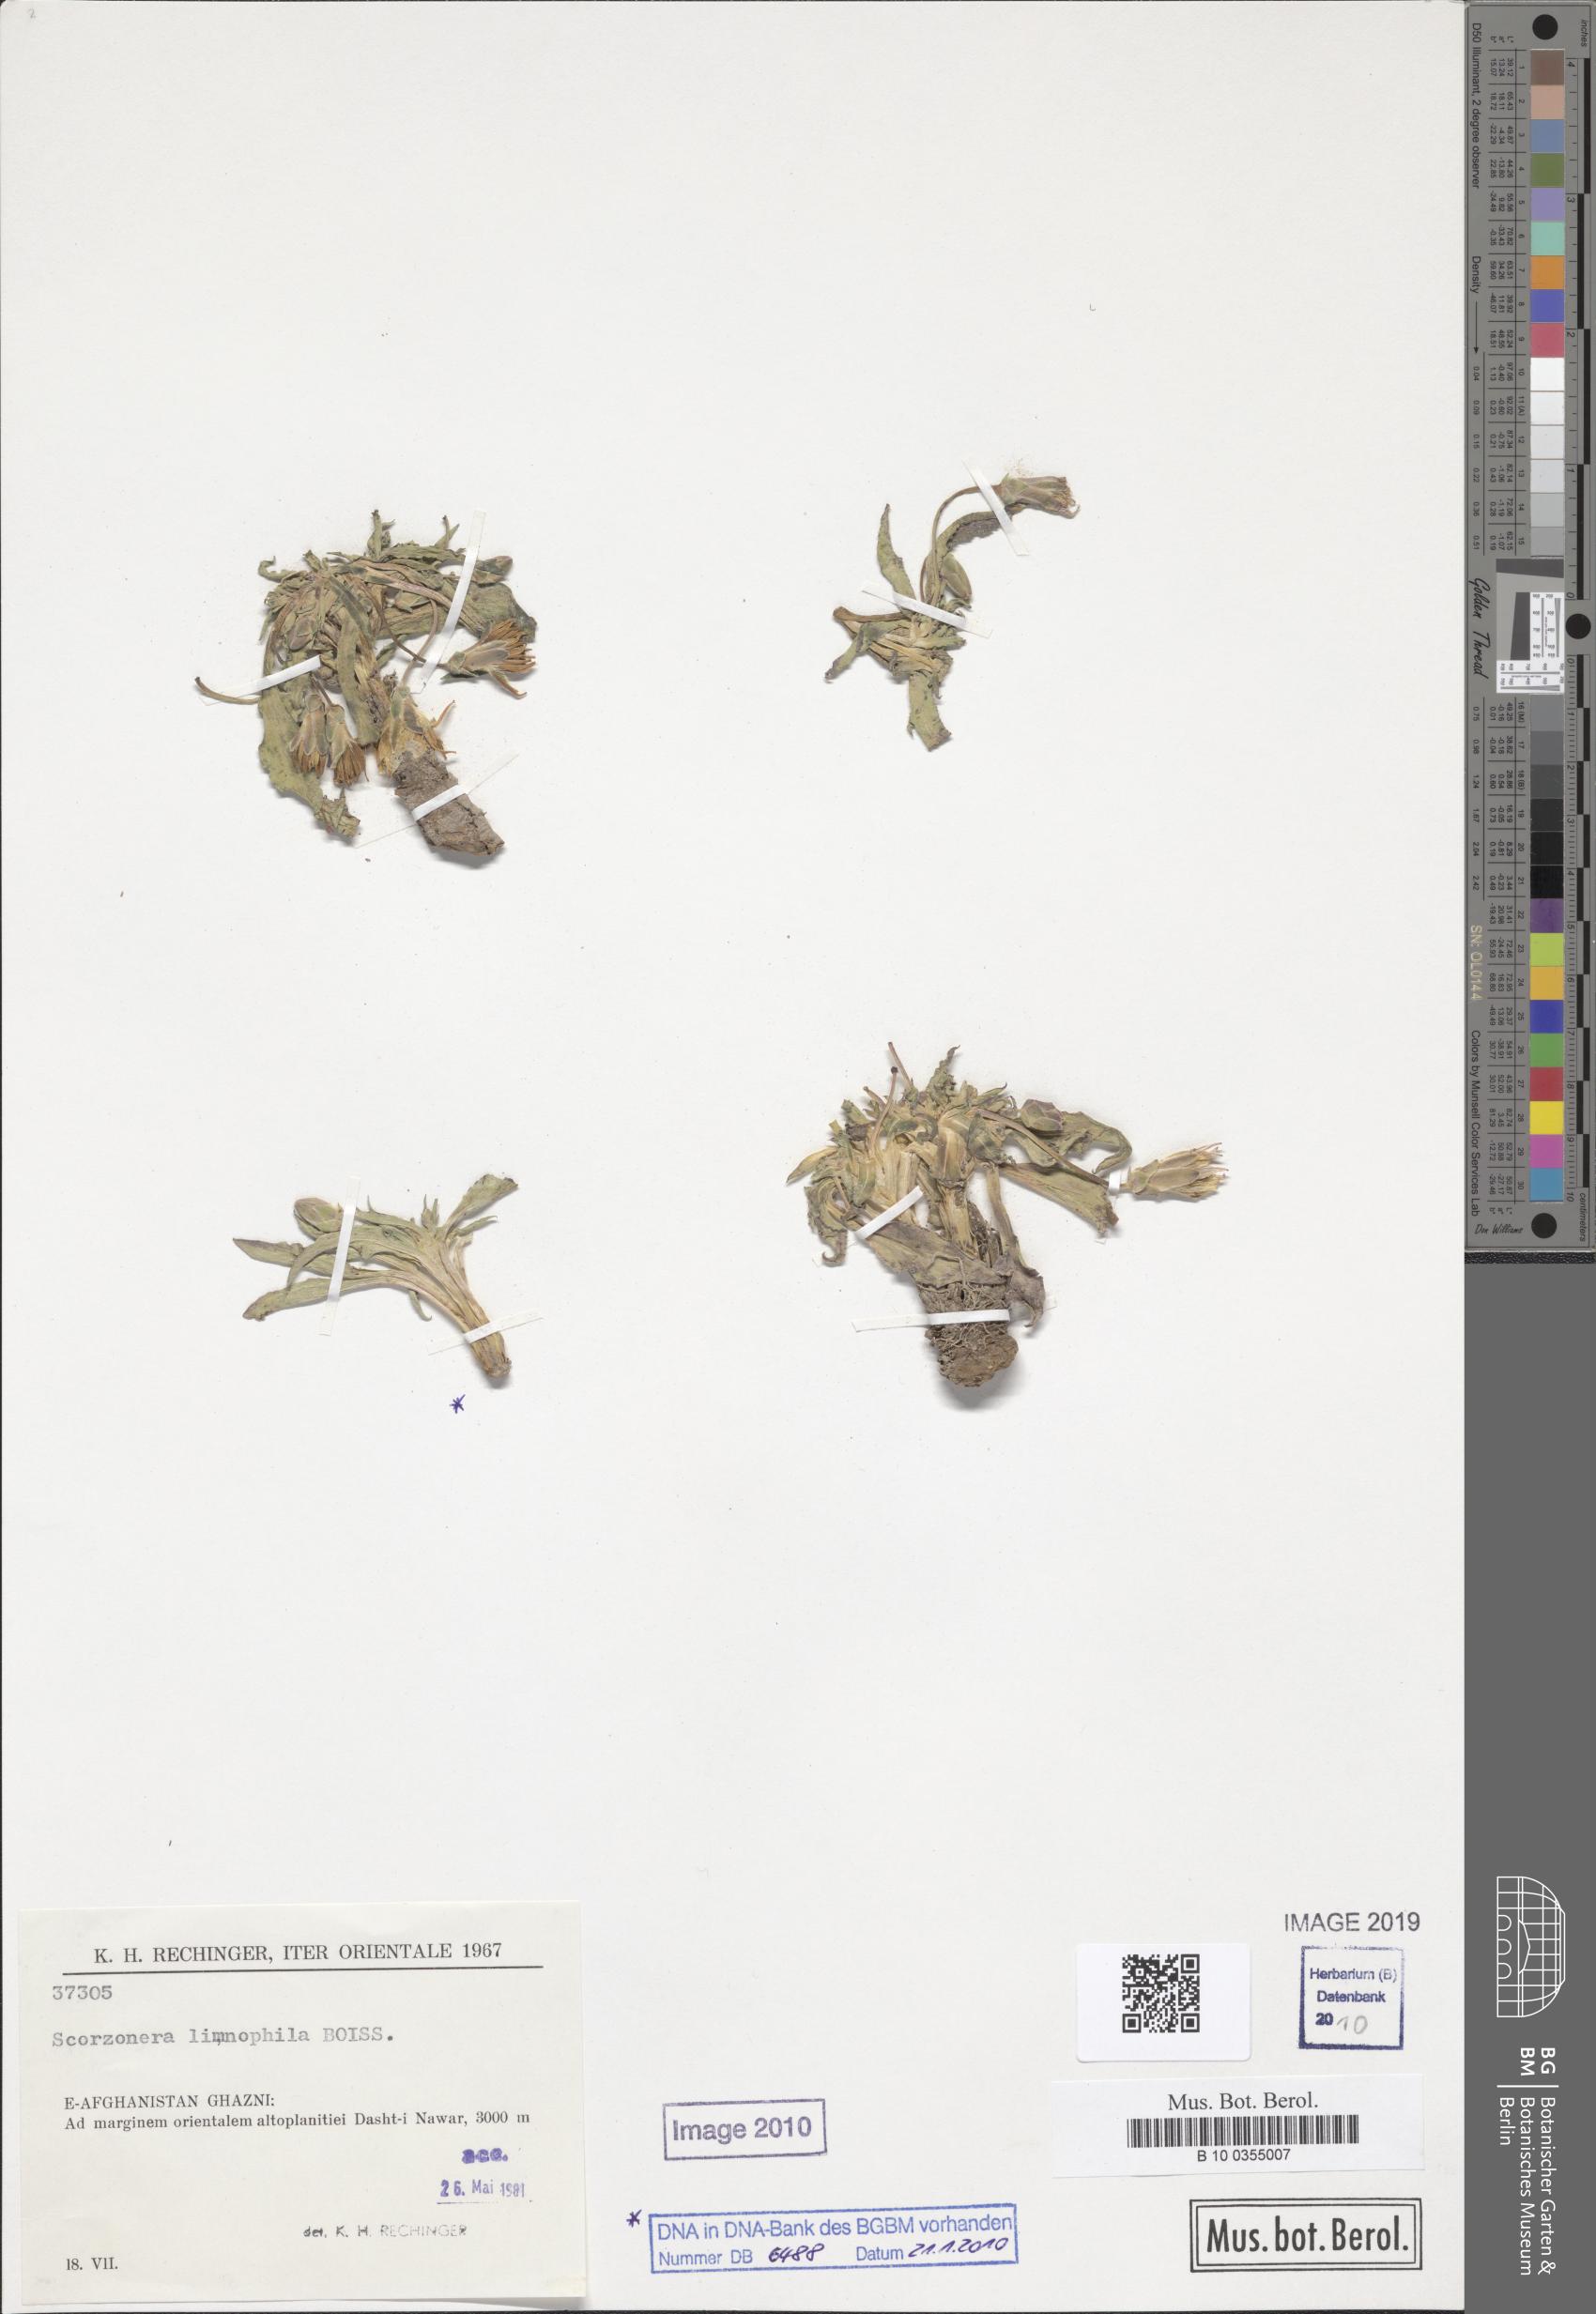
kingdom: Plantae
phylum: Tracheophyta
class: Magnoliopsida
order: Asterales
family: Asteraceae
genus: Scorzonera
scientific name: Scorzonera limnophila
